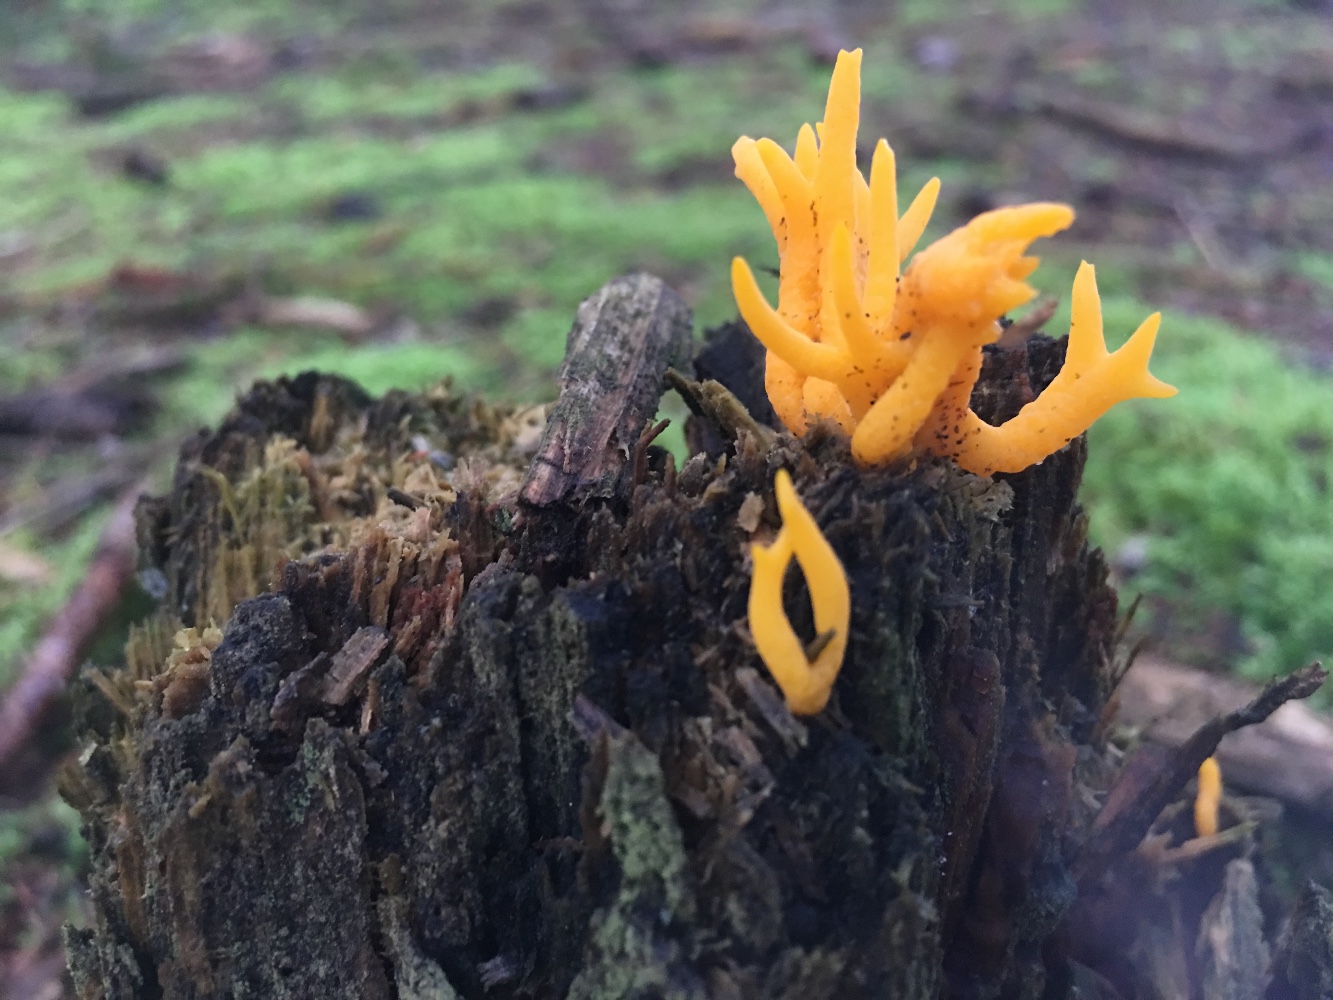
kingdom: Fungi
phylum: Basidiomycota
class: Dacrymycetes
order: Dacrymycetales
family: Dacrymycetaceae
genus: Calocera
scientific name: Calocera viscosa
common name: almindelig guldgaffel
